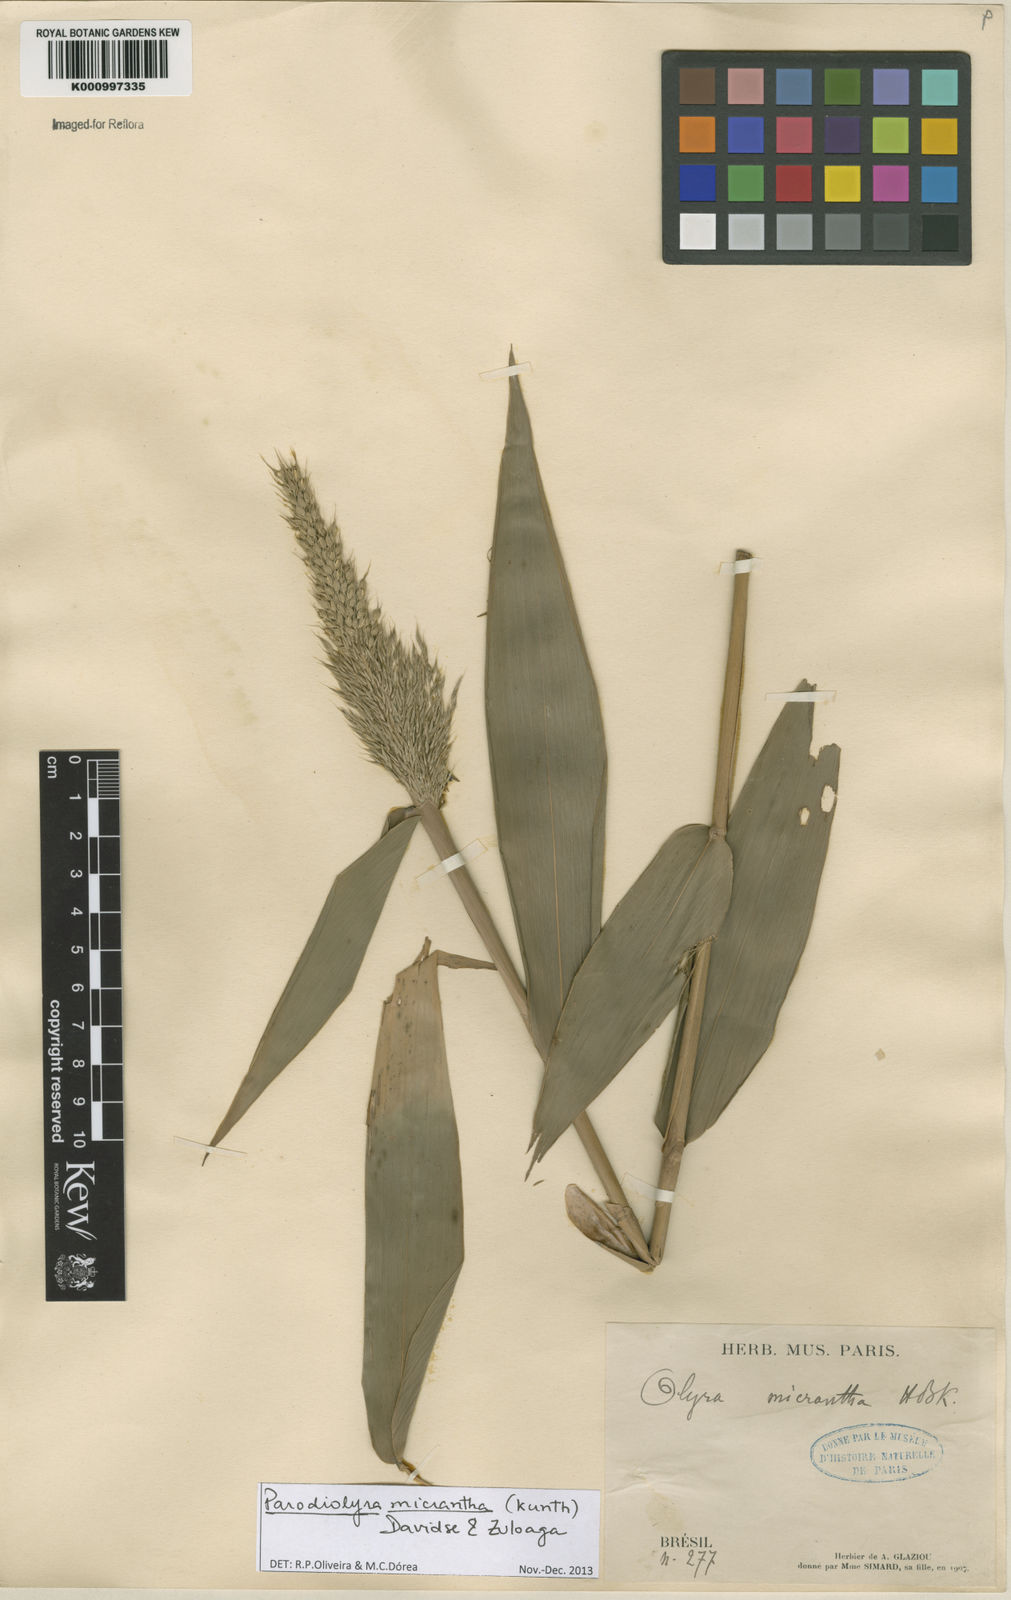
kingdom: Plantae
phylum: Tracheophyta
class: Liliopsida
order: Poales
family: Poaceae
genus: Taquara
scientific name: Taquara micrantha
